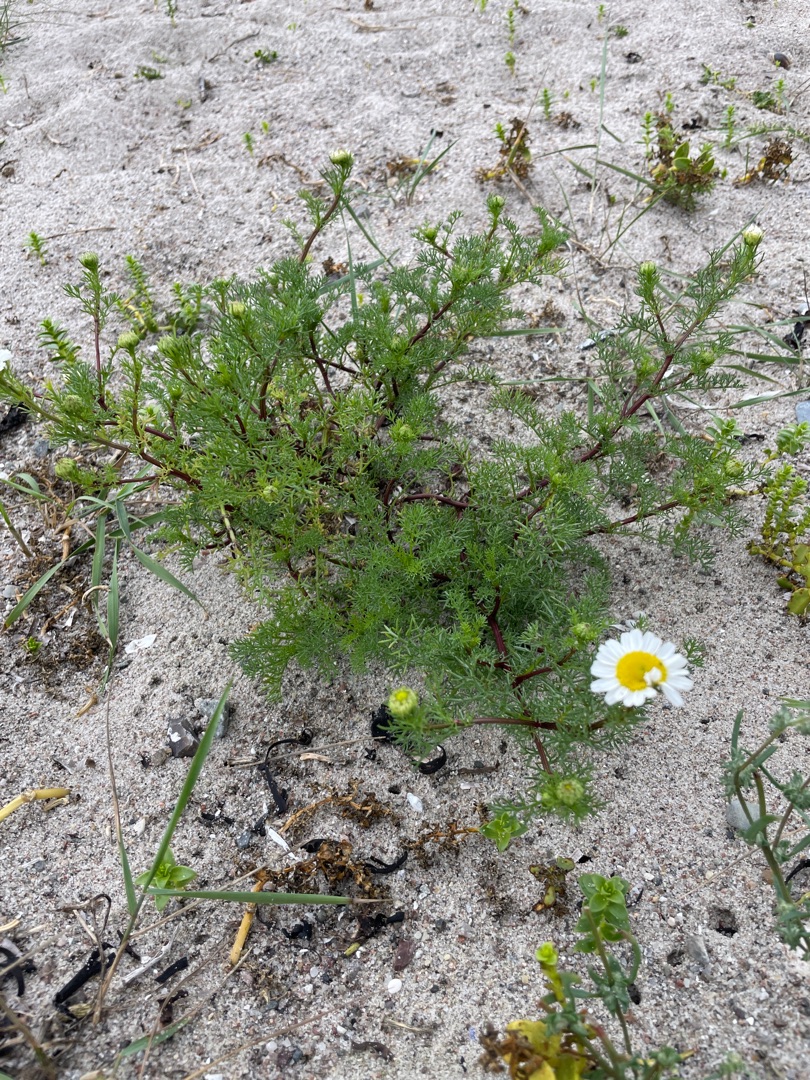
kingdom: Plantae
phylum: Tracheophyta
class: Magnoliopsida
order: Asterales
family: Asteraceae
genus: Tripleurospermum
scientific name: Tripleurospermum maritimum
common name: Strand-kamille
